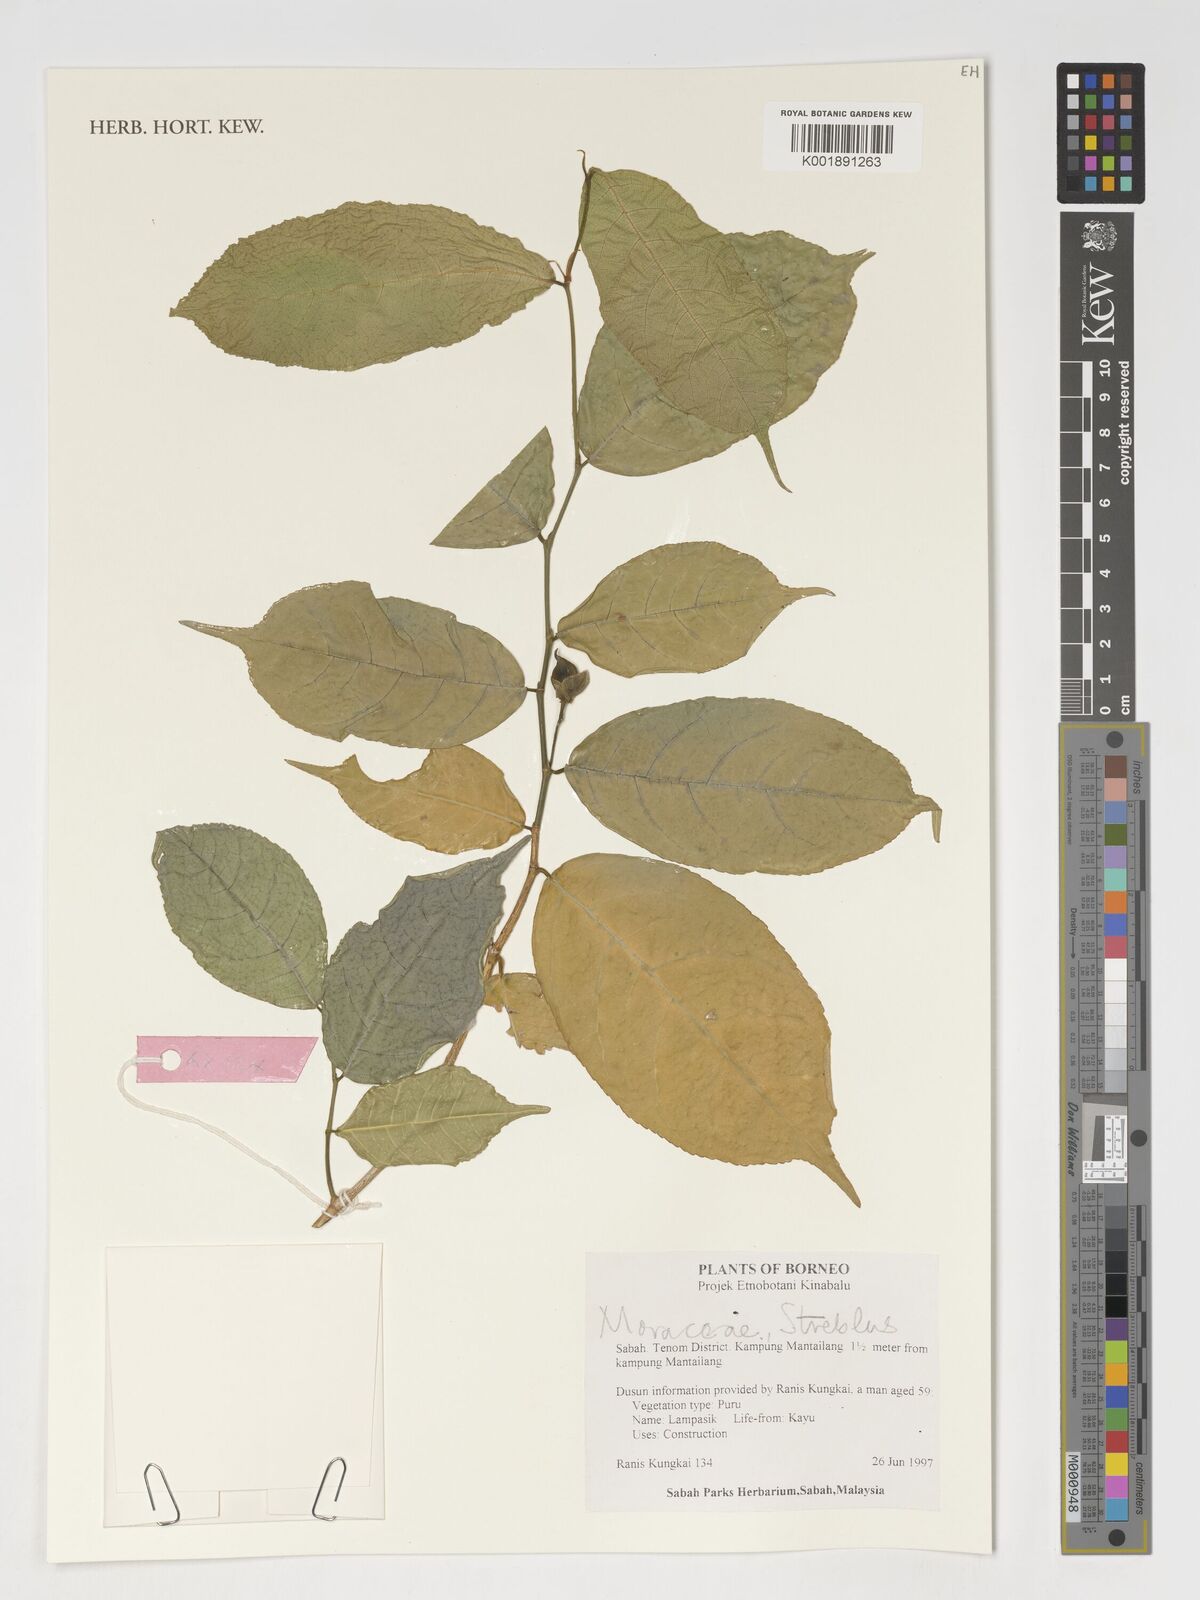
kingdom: Plantae
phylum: Tracheophyta
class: Magnoliopsida
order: Rosales
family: Moraceae
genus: Streblus
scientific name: Streblus
